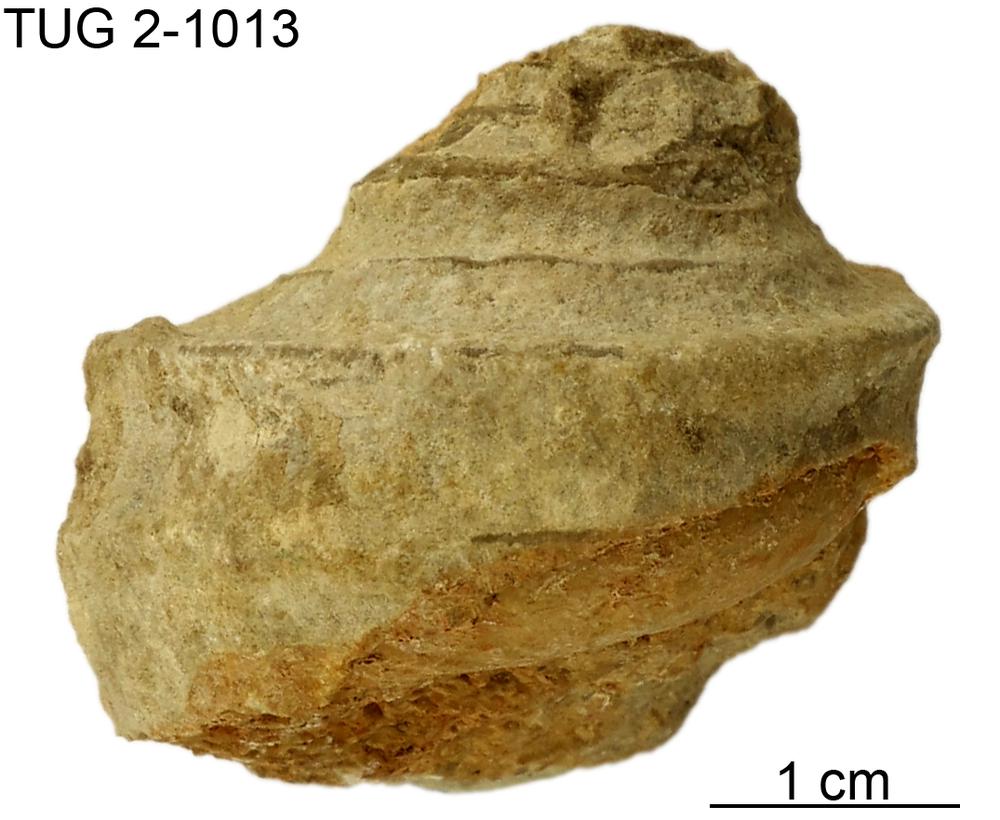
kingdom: Animalia
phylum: Mollusca
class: Gastropoda
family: Lophospiridae
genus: Ruedemannia
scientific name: Ruedemannia Worthenia borkholmiensis
